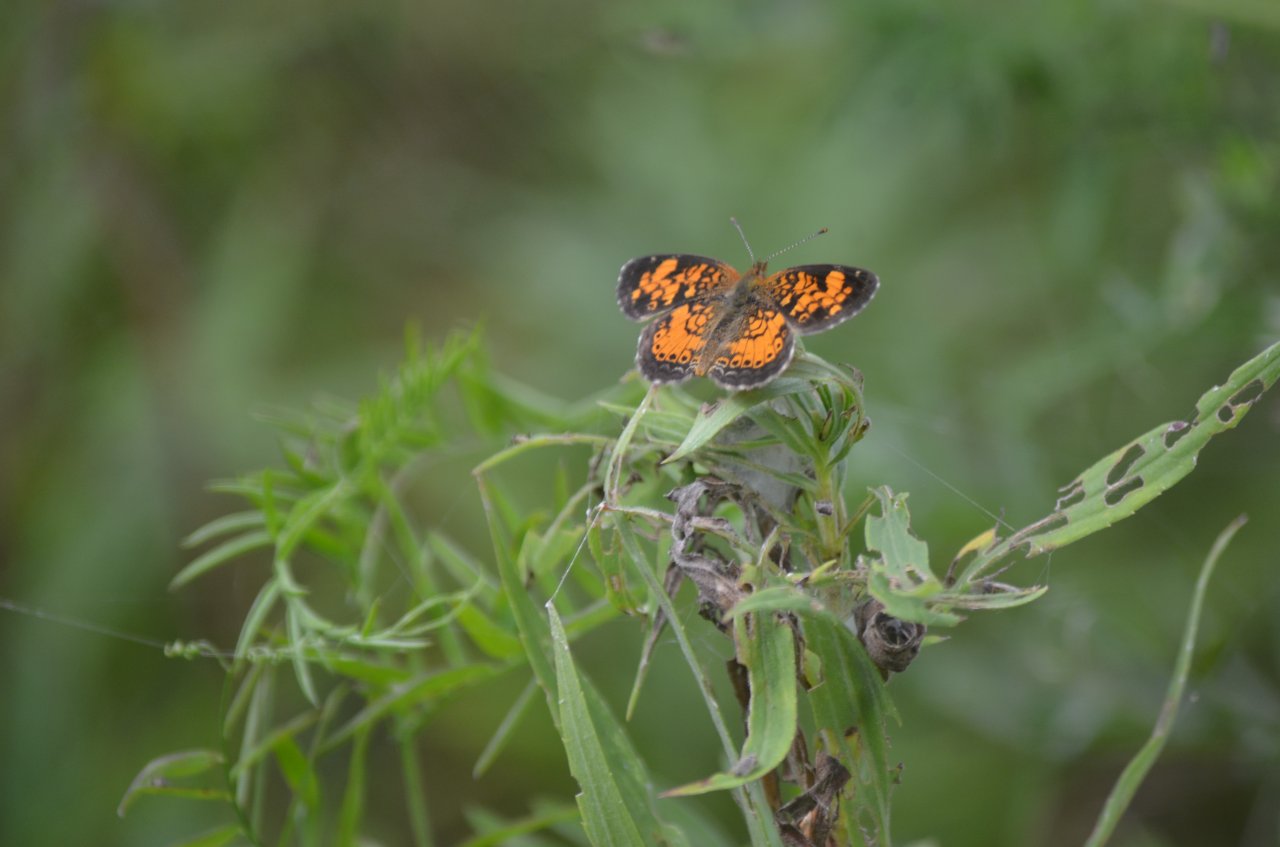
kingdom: Animalia
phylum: Arthropoda
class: Insecta
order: Lepidoptera
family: Nymphalidae
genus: Phyciodes
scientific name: Phyciodes tharos
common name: Northern Crescent
